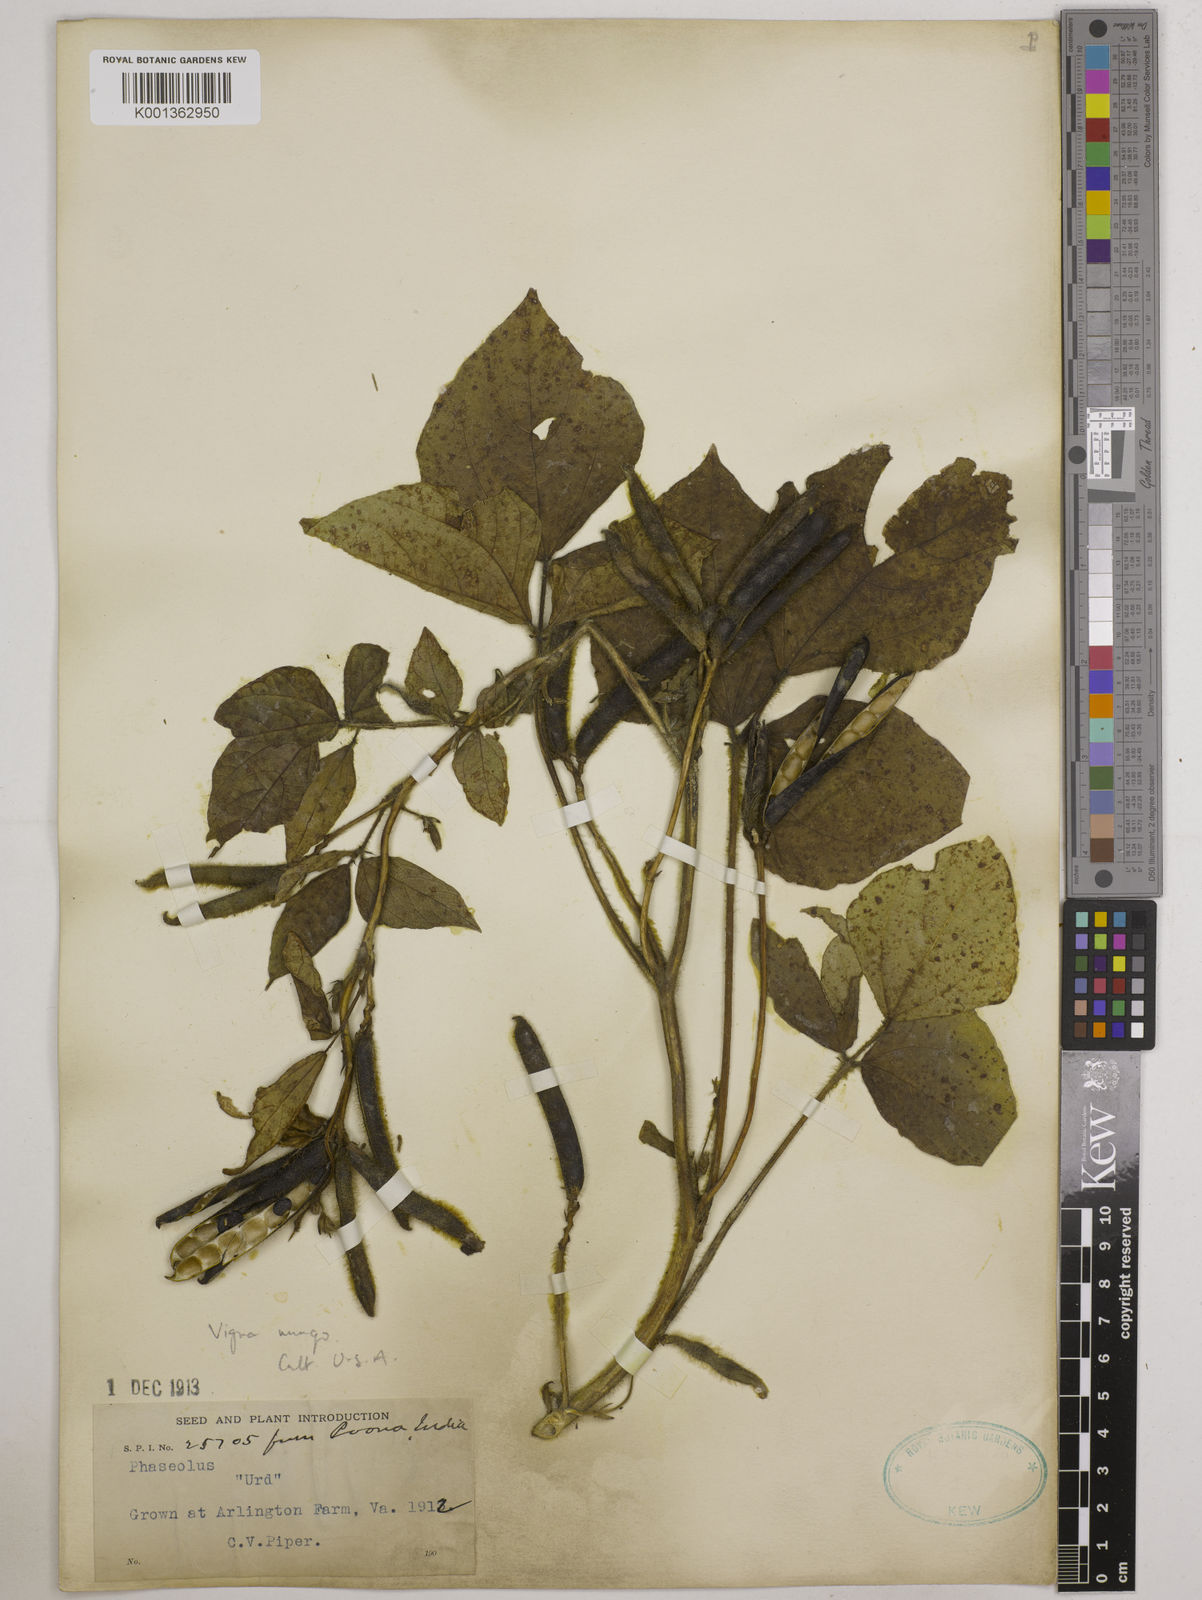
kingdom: Plantae
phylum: Tracheophyta
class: Magnoliopsida
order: Fabales
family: Fabaceae
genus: Vigna
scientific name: Vigna mungo
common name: Black gram
